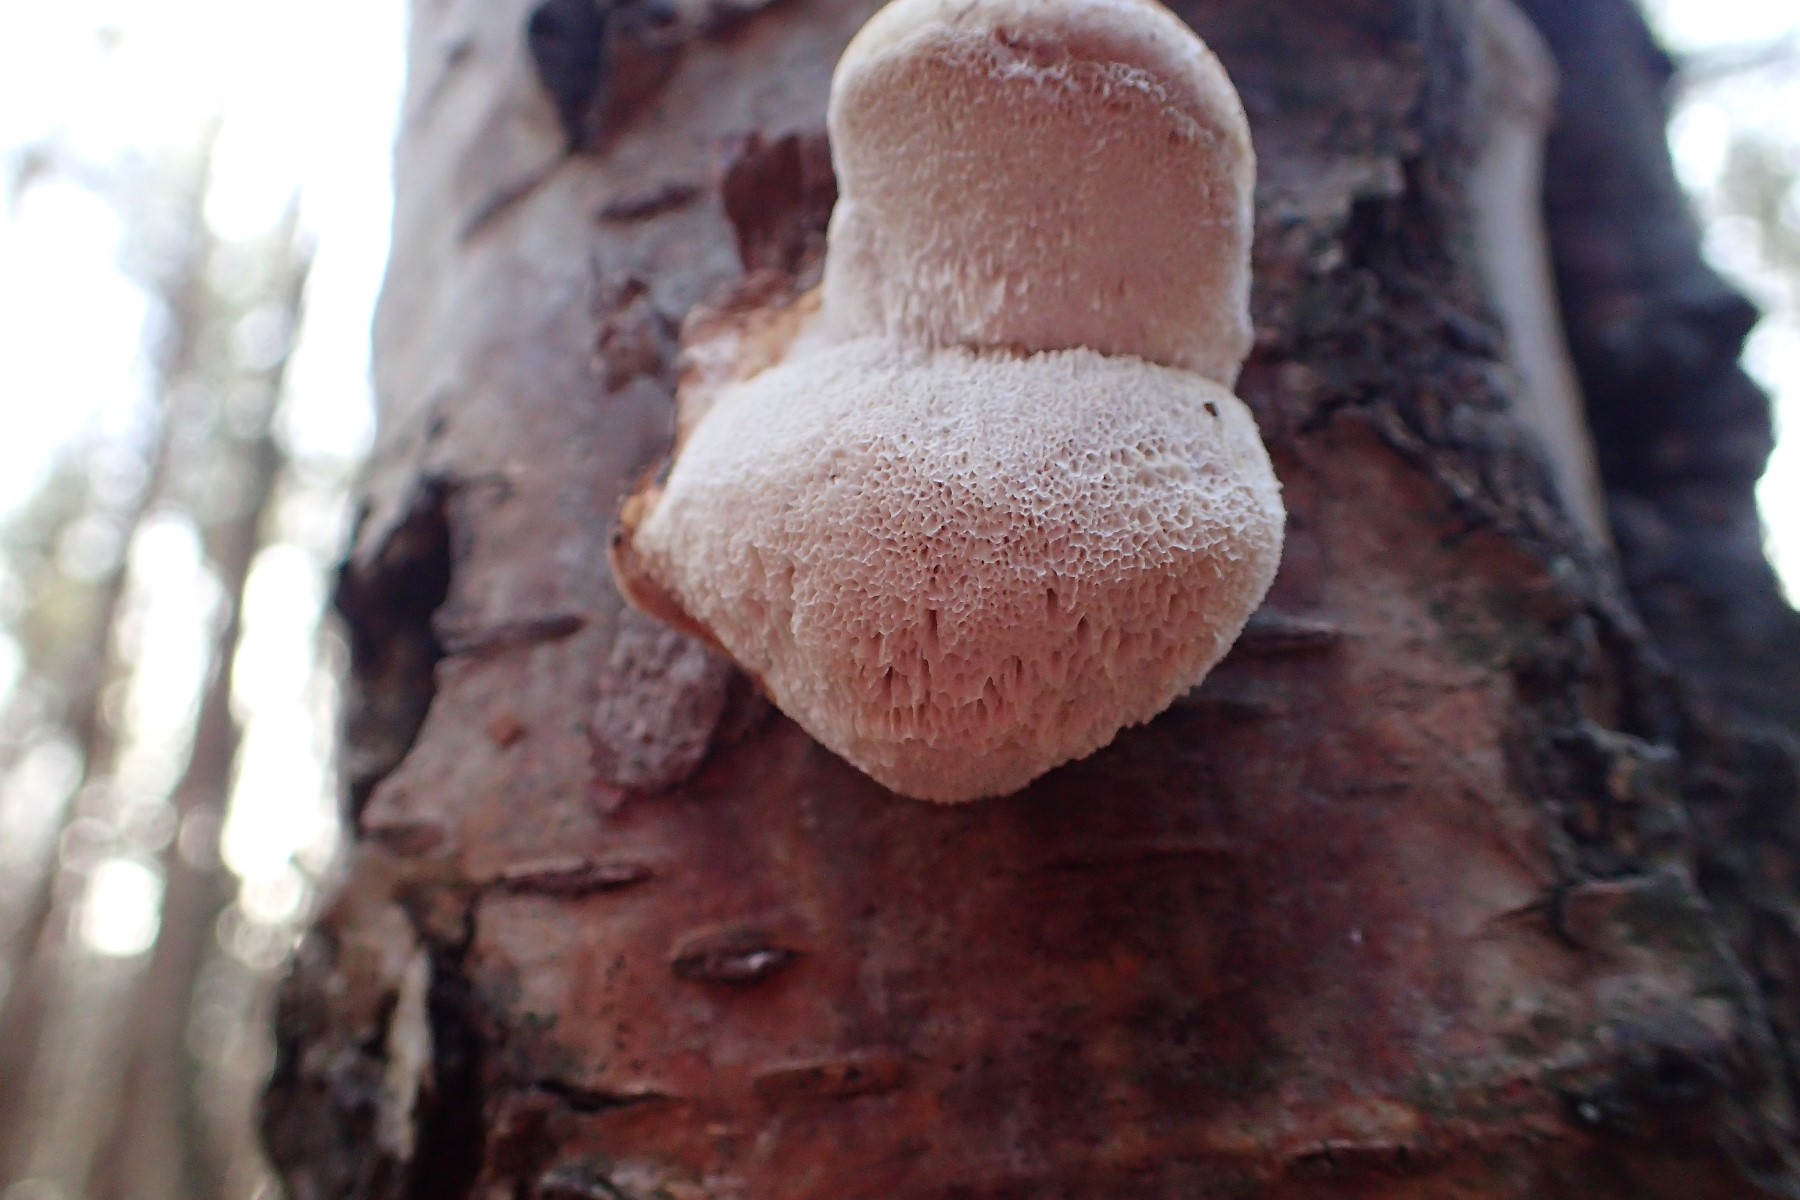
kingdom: Fungi
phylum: Basidiomycota
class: Agaricomycetes
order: Polyporales
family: Fomitopsidaceae
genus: Fomitopsis
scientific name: Fomitopsis betulina
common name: birkeporesvamp
